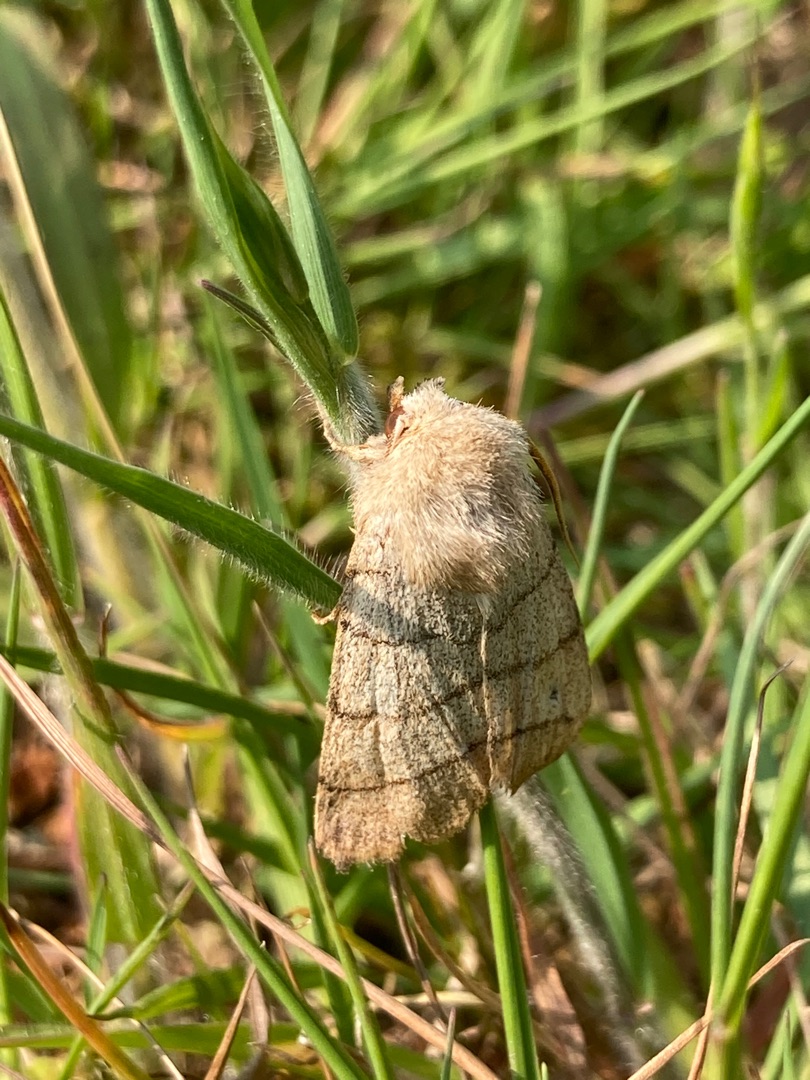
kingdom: Animalia
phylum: Arthropoda
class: Insecta
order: Lepidoptera
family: Noctuidae
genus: Charanyca
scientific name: Charanyca trigrammica
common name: Firestreget ugle
